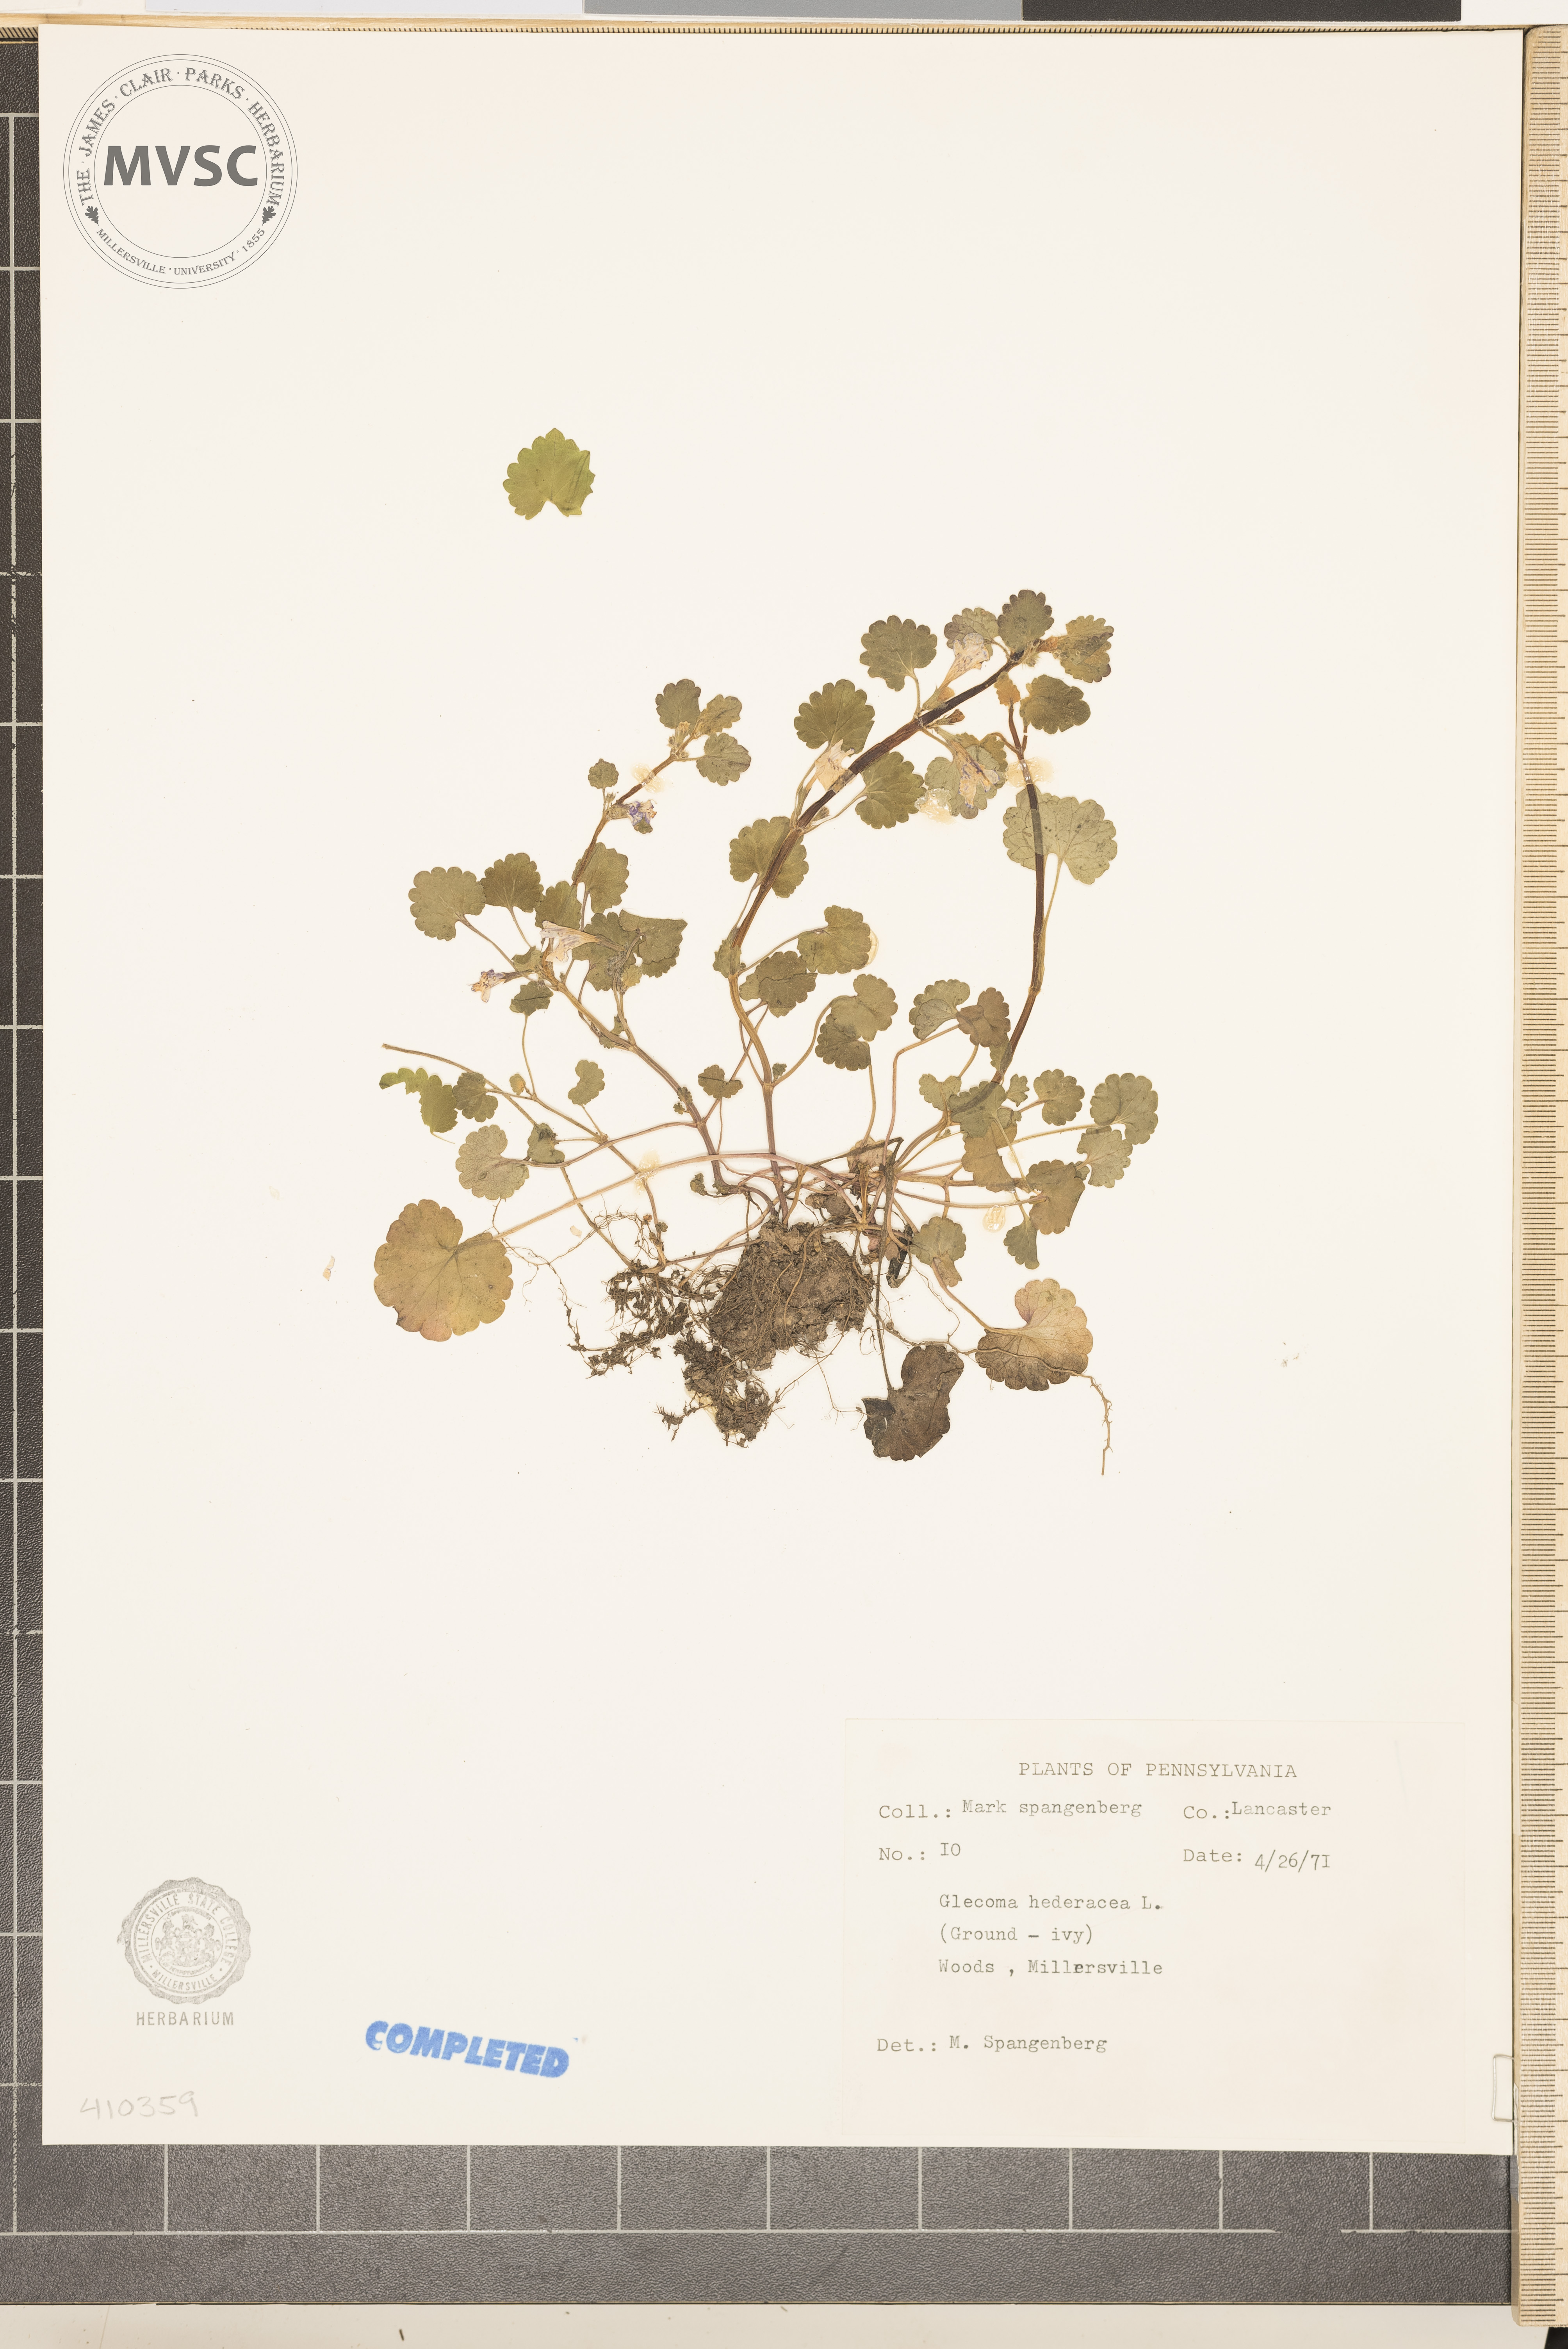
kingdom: Plantae
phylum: Tracheophyta
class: Magnoliopsida
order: Lamiales
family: Lamiaceae
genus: Glechoma
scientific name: Glechoma hederacea
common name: ground ivy
